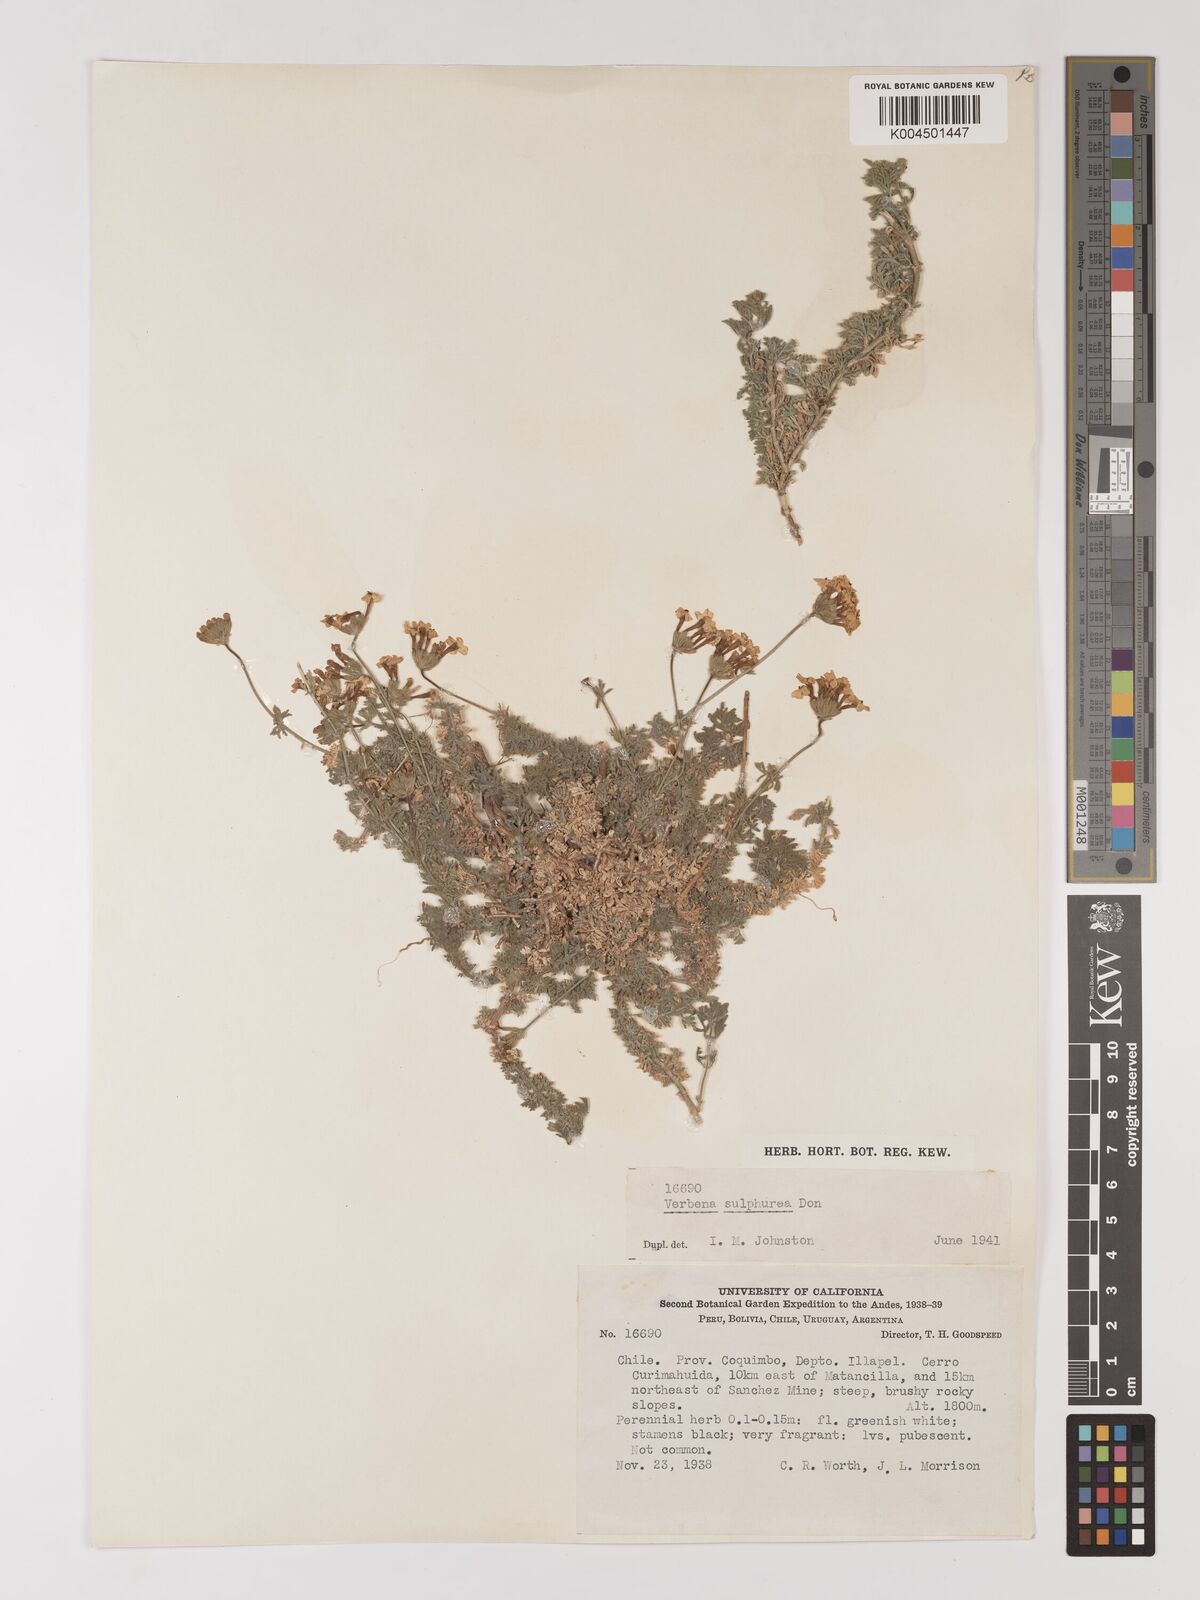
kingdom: Plantae
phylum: Tracheophyta
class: Magnoliopsida
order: Lamiales
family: Verbenaceae
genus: Verbena
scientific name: Verbena sulphurea
